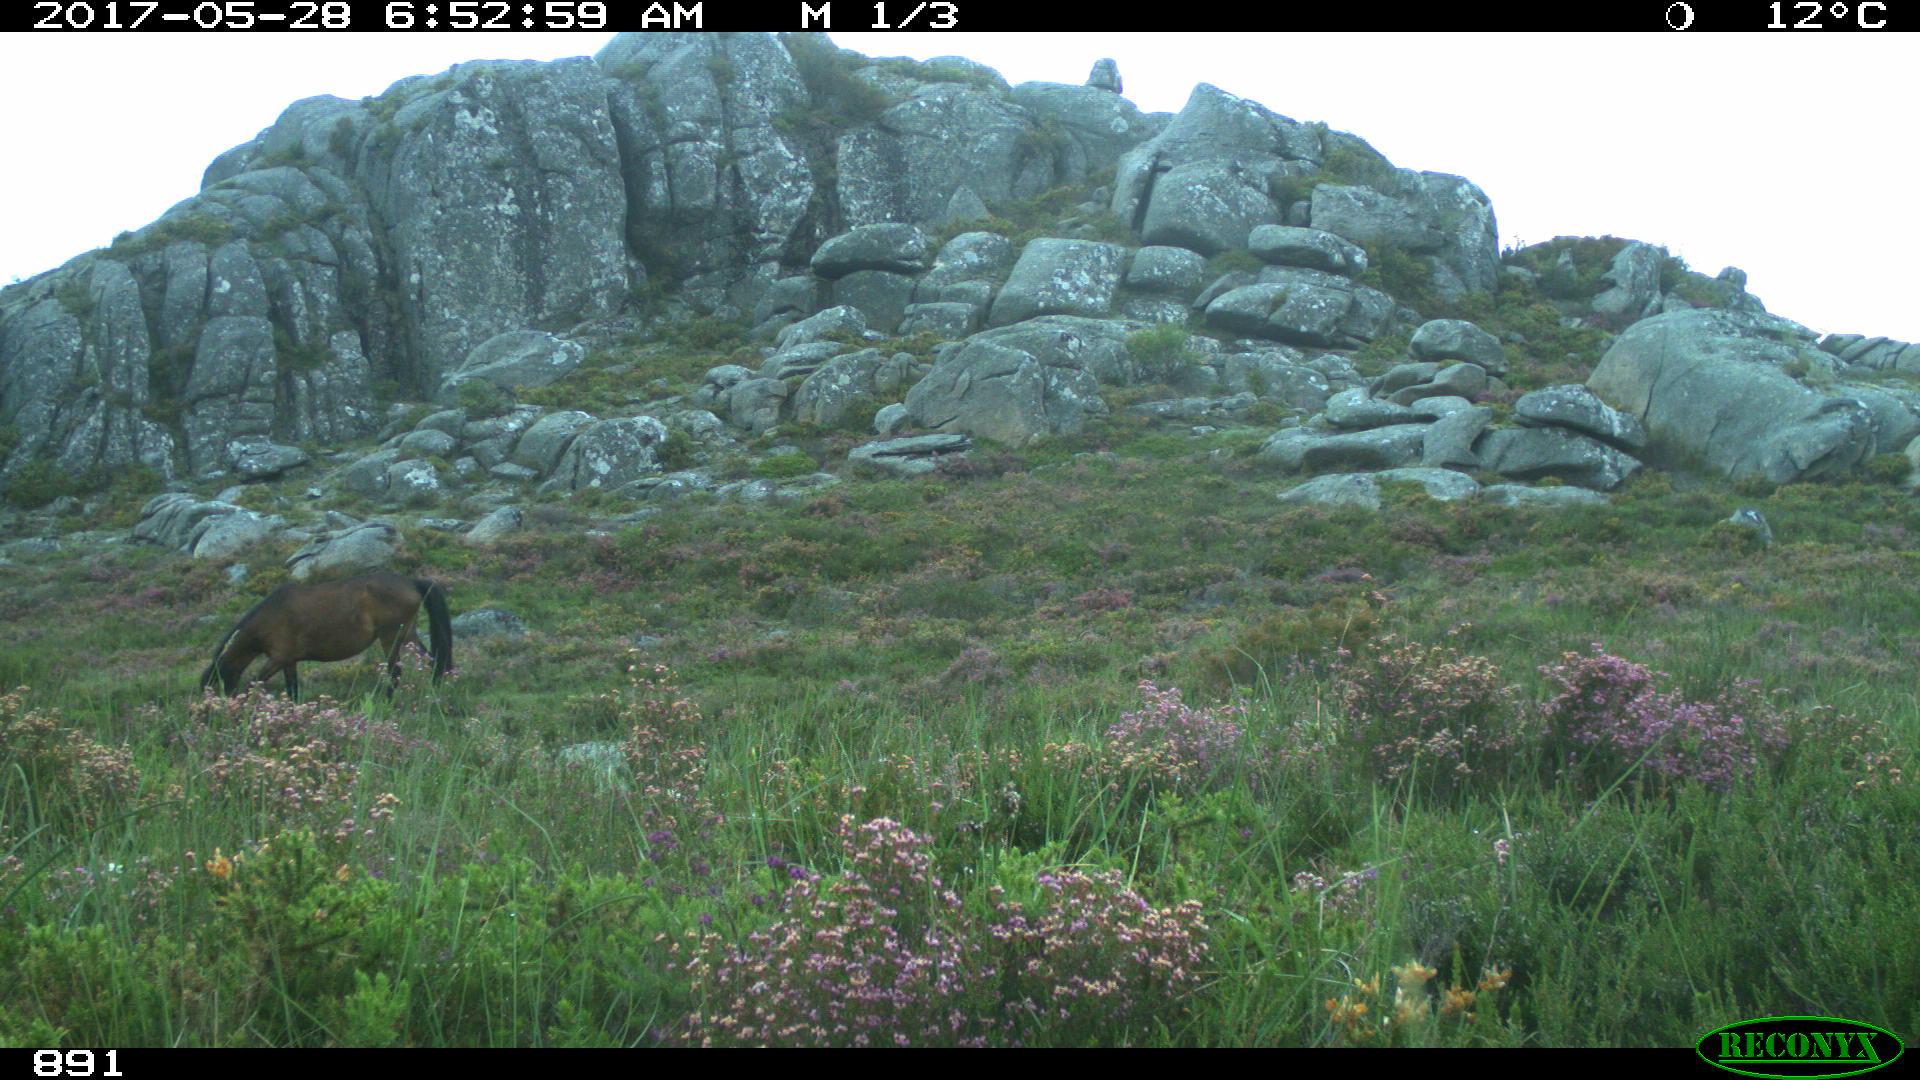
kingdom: Animalia
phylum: Chordata
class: Mammalia
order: Perissodactyla
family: Equidae
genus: Equus
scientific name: Equus caballus
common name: Horse
